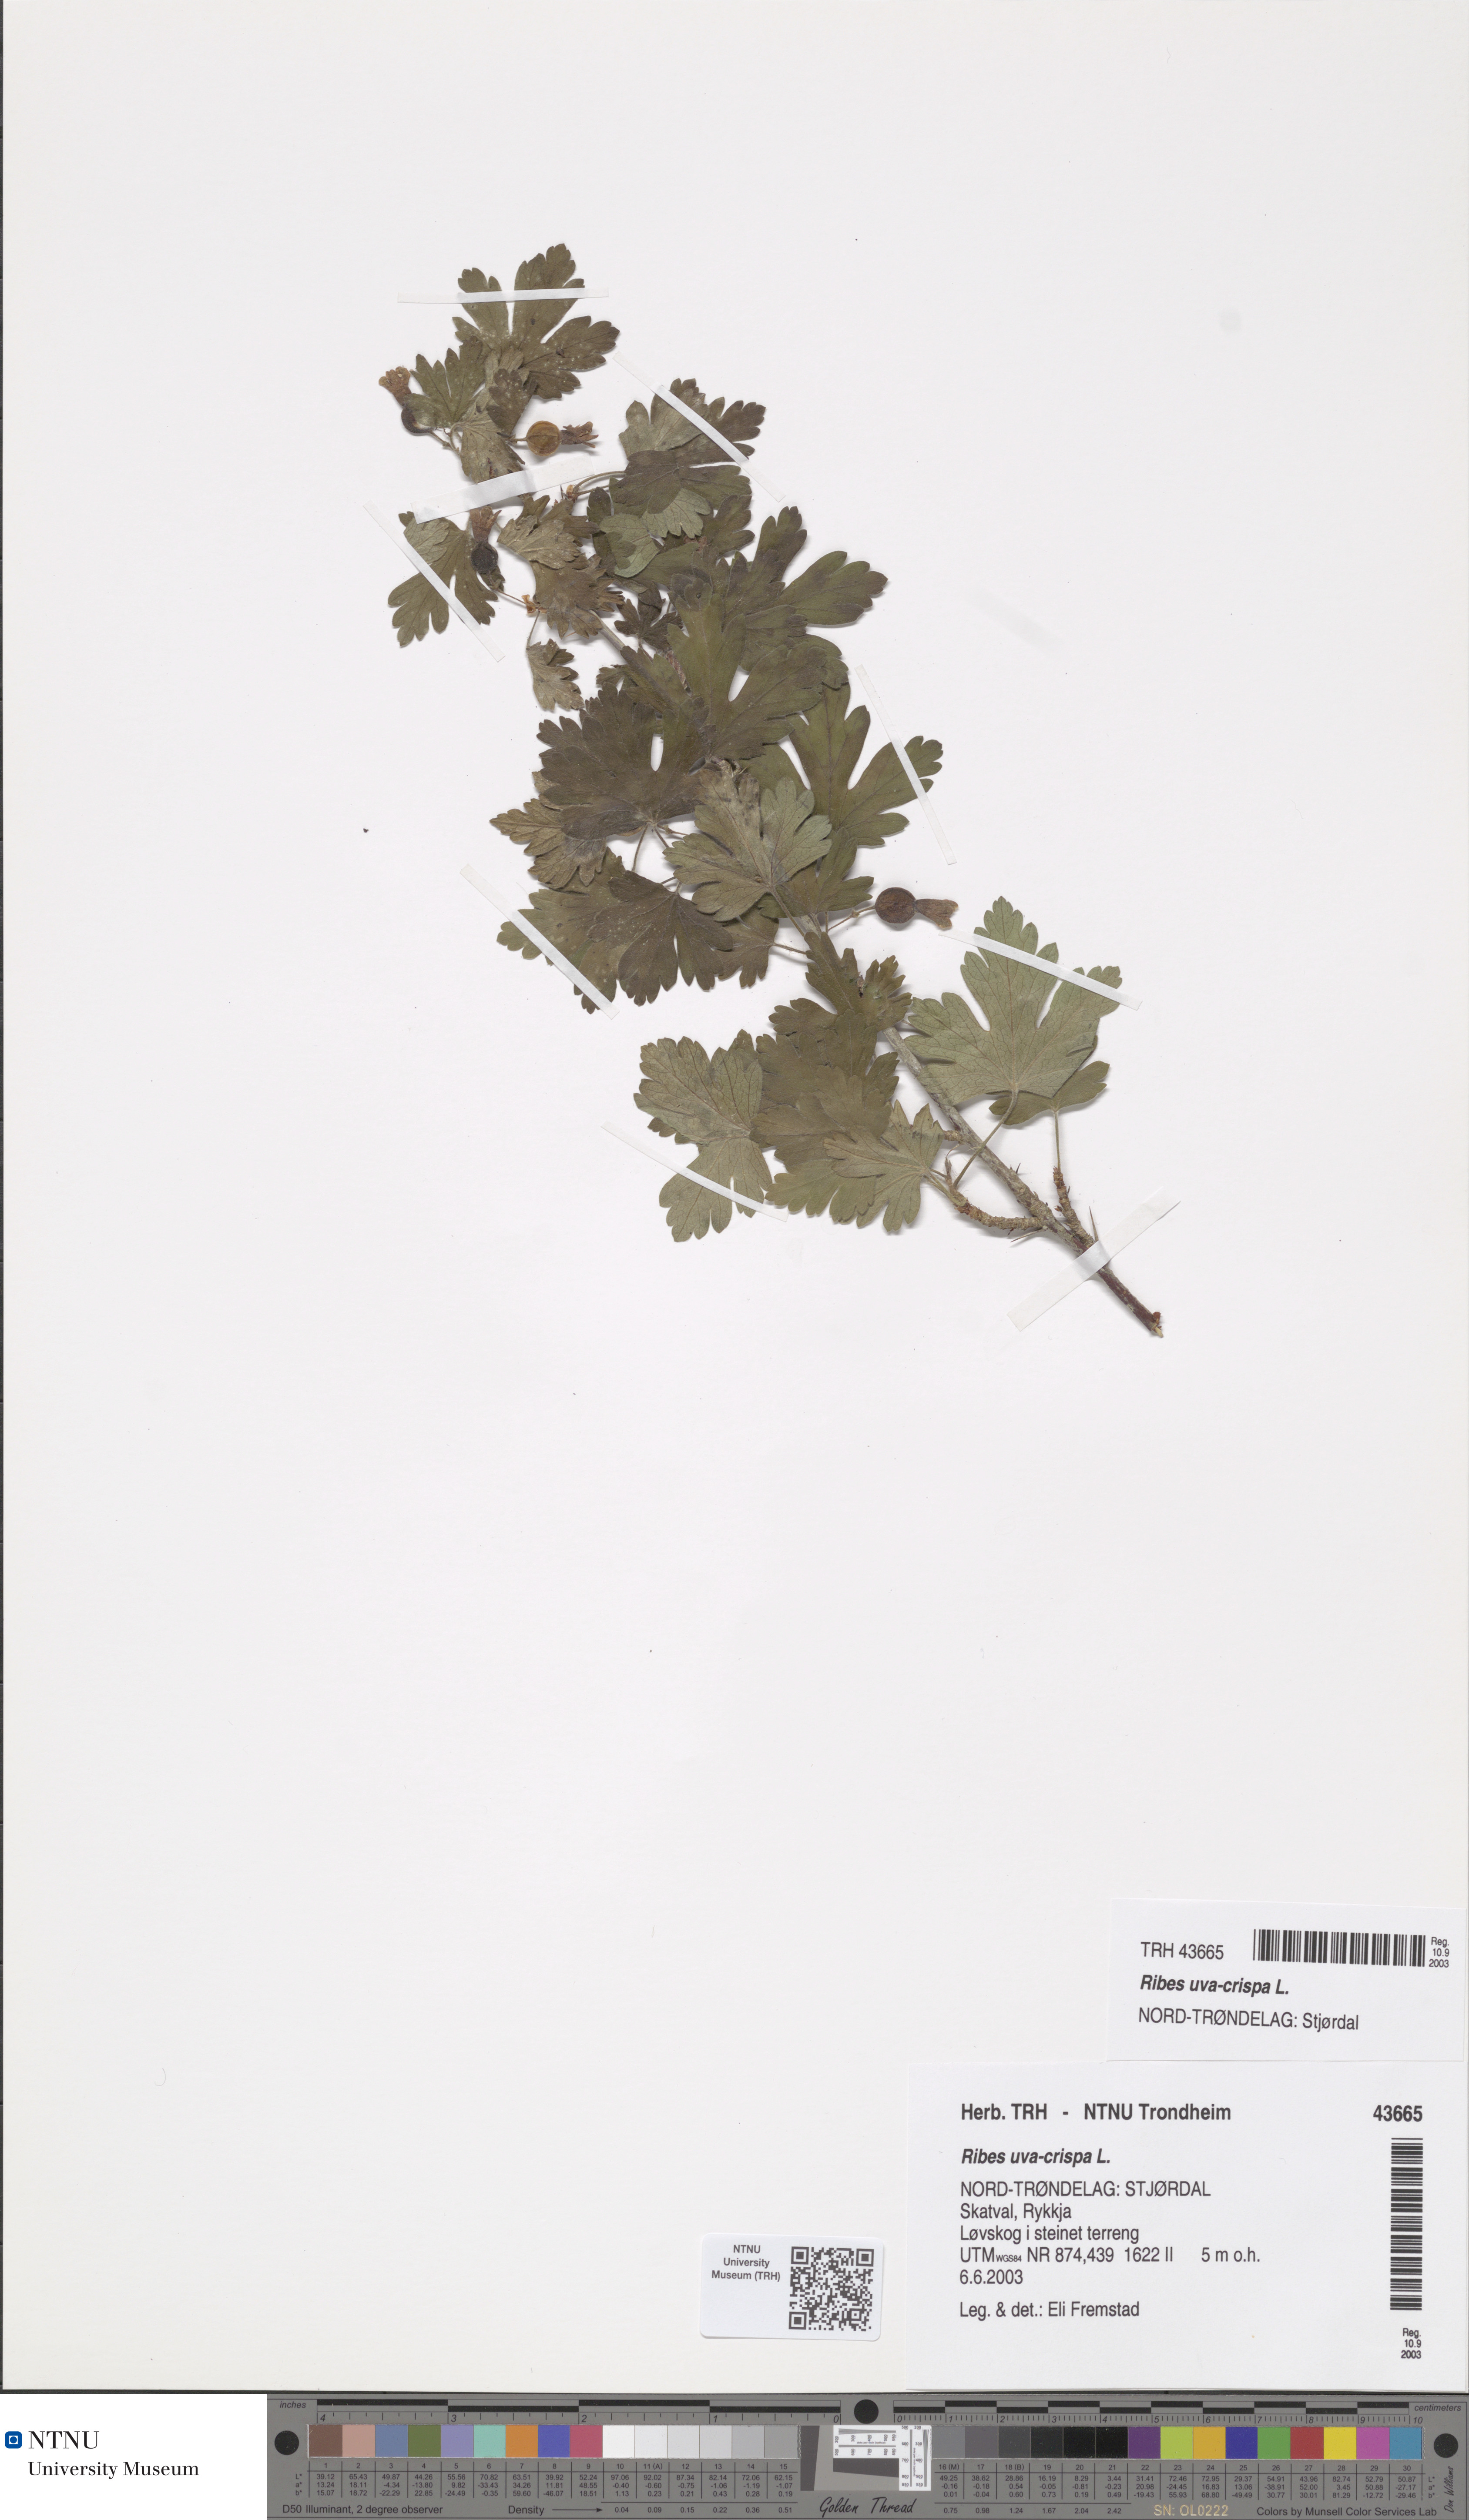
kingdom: Plantae
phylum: Tracheophyta
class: Magnoliopsida
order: Saxifragales
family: Grossulariaceae
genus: Ribes
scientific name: Ribes uva-crispa
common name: Gooseberry
